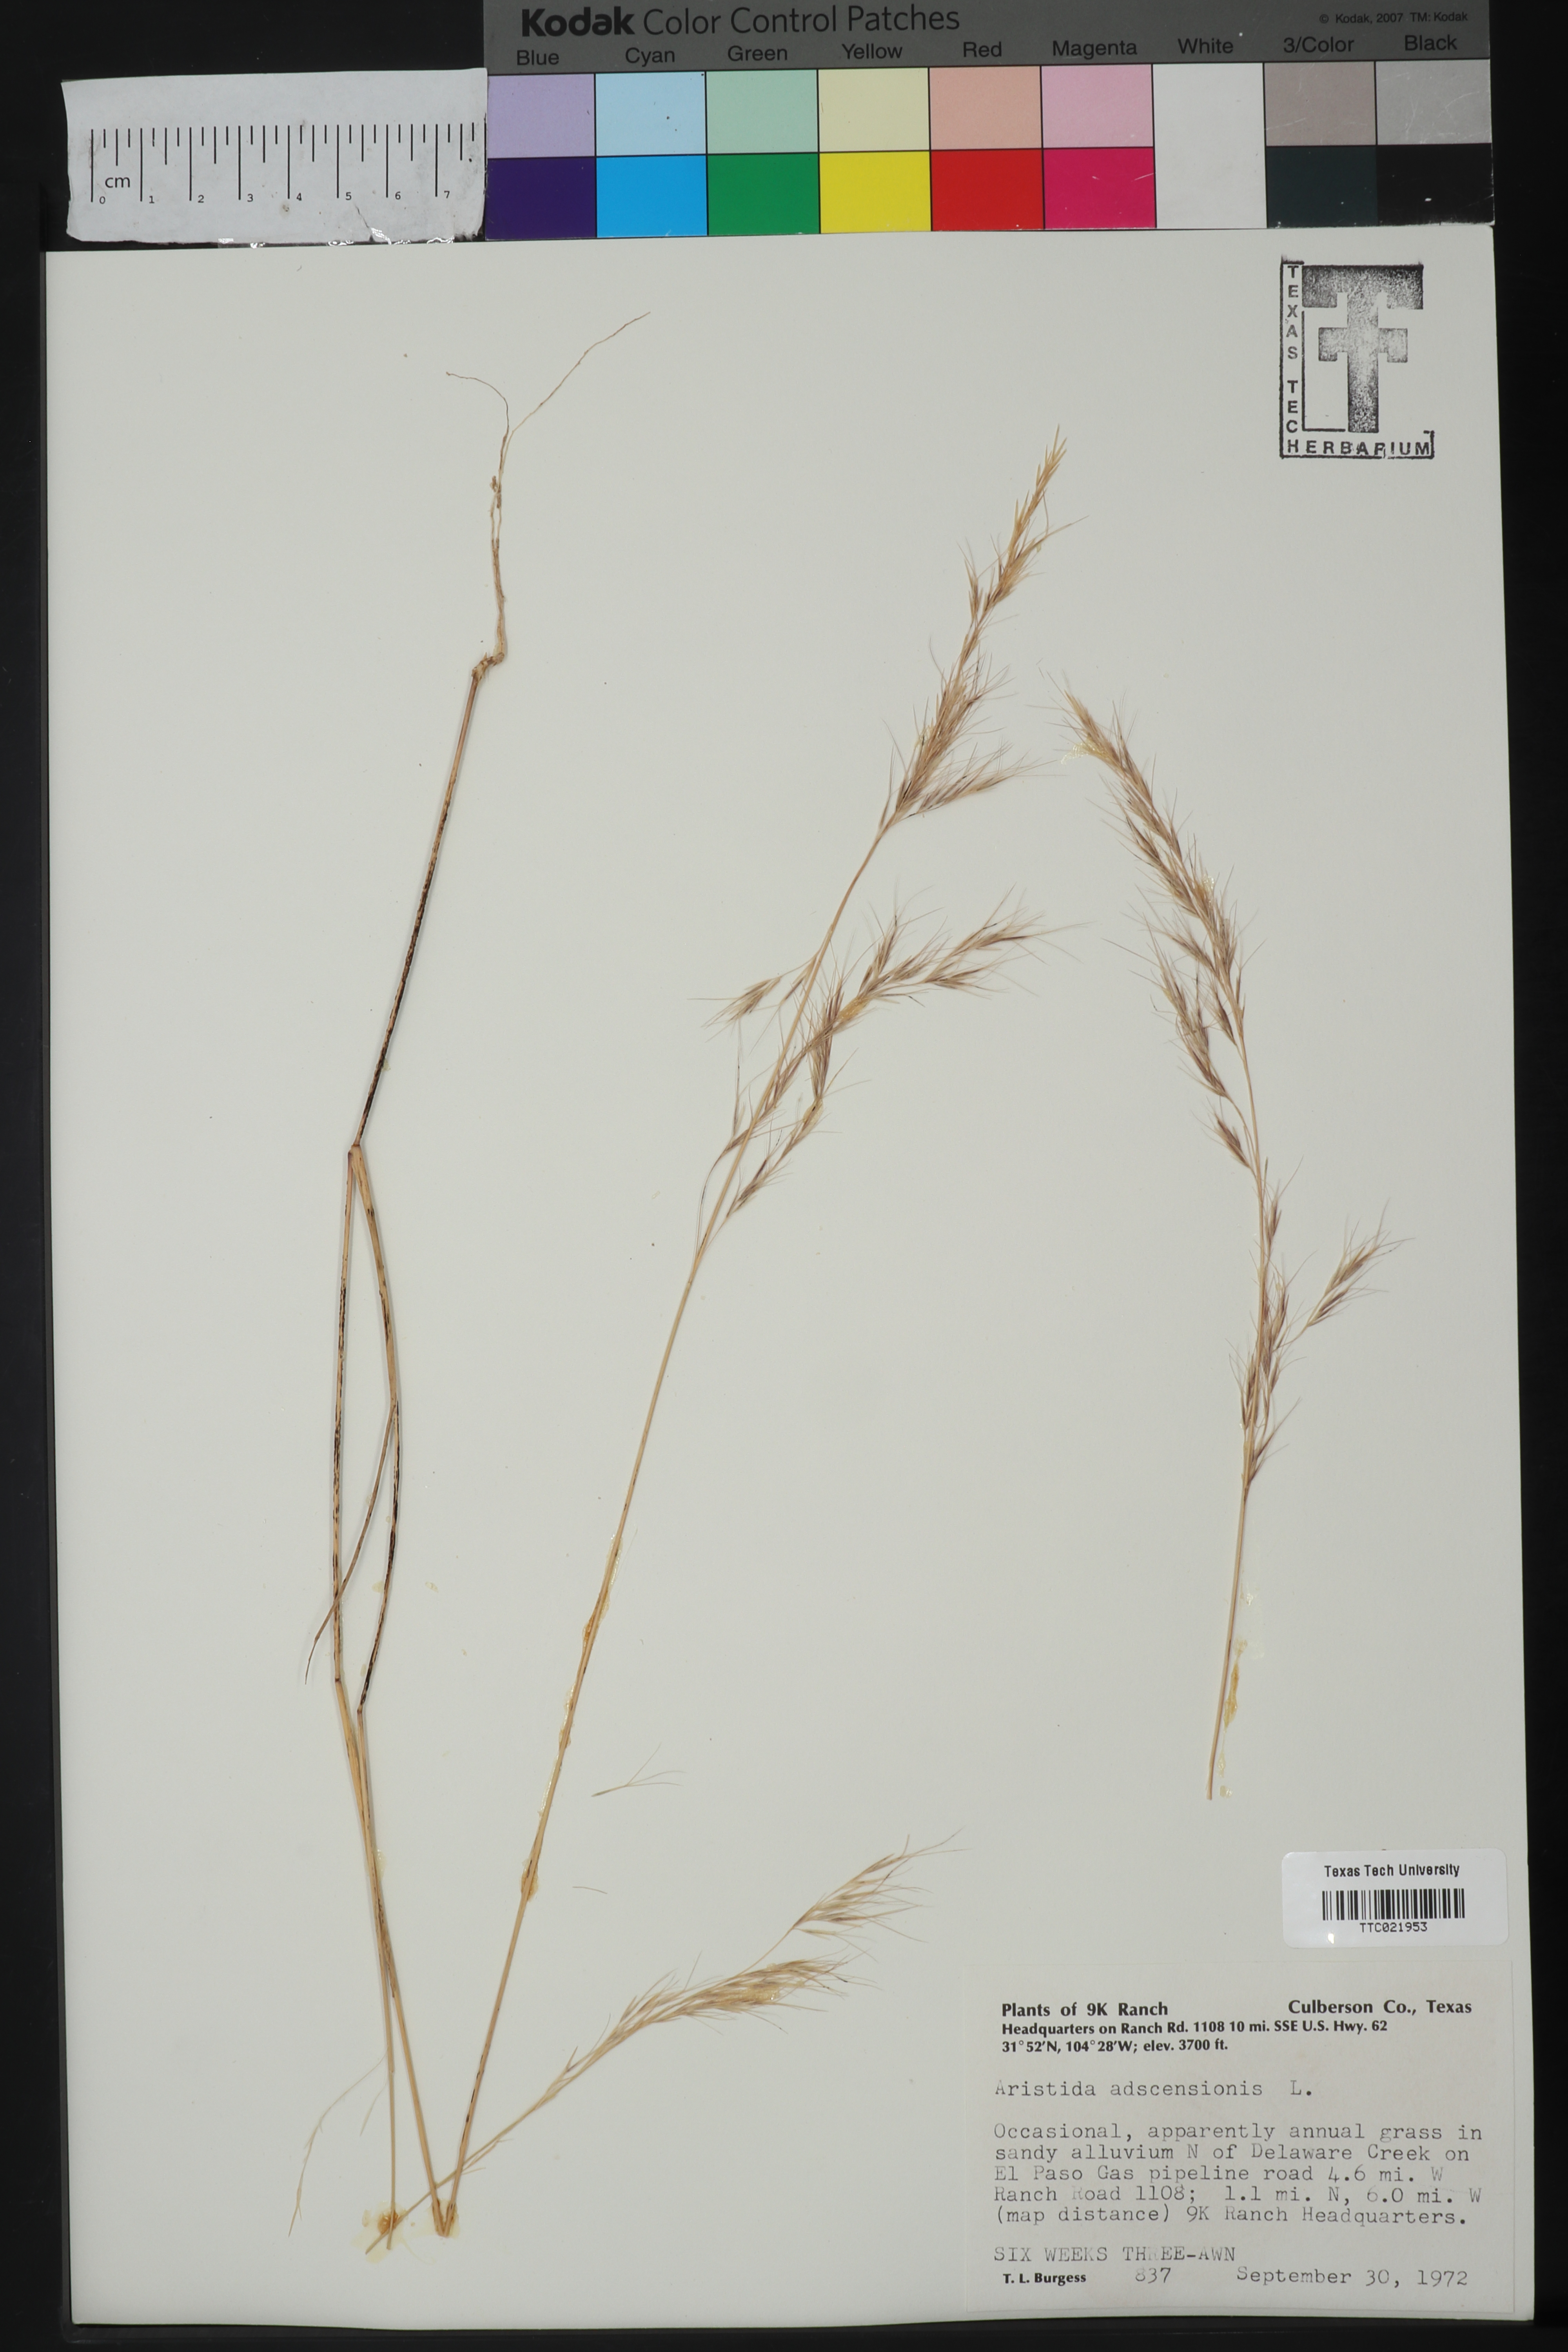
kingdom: Plantae
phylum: Tracheophyta
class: Liliopsida
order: Poales
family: Poaceae
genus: Aristida
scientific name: Aristida adscensionis
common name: Sixweeks threeawn
